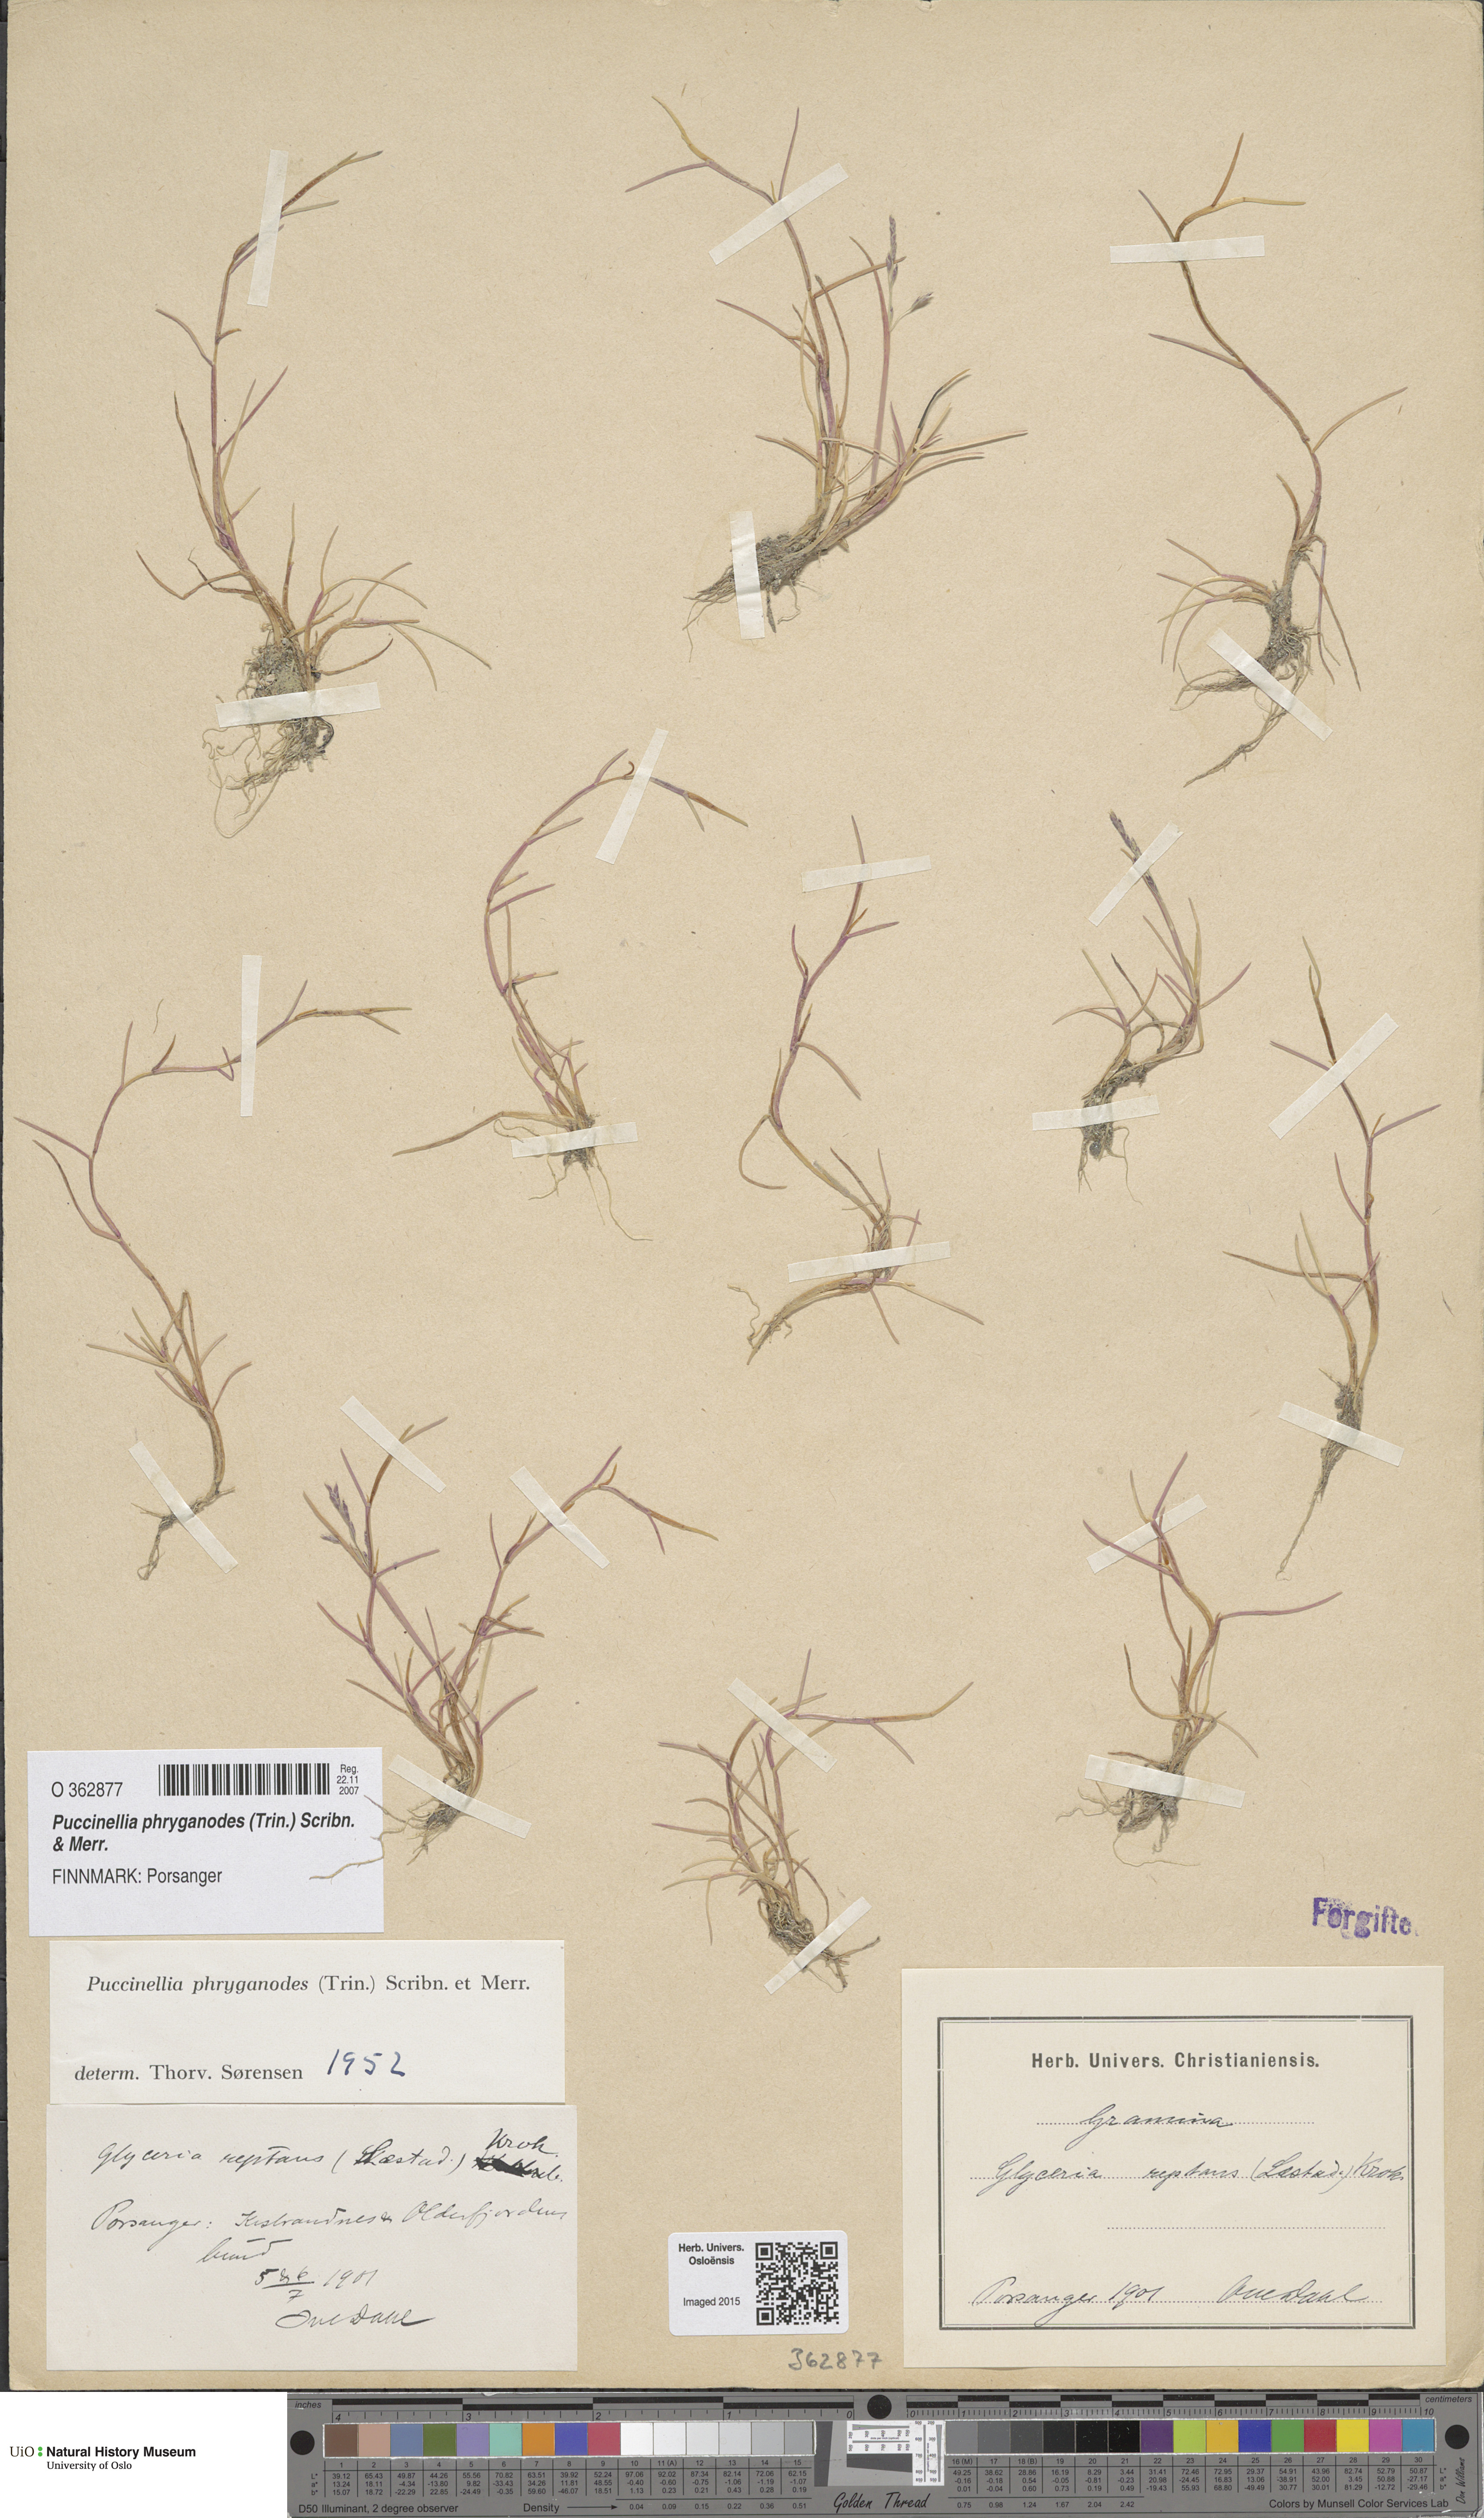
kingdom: Plantae
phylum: Tracheophyta
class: Liliopsida
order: Poales
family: Poaceae
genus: Puccinellia
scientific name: Puccinellia phryganodes
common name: Creeping alkaligrass
